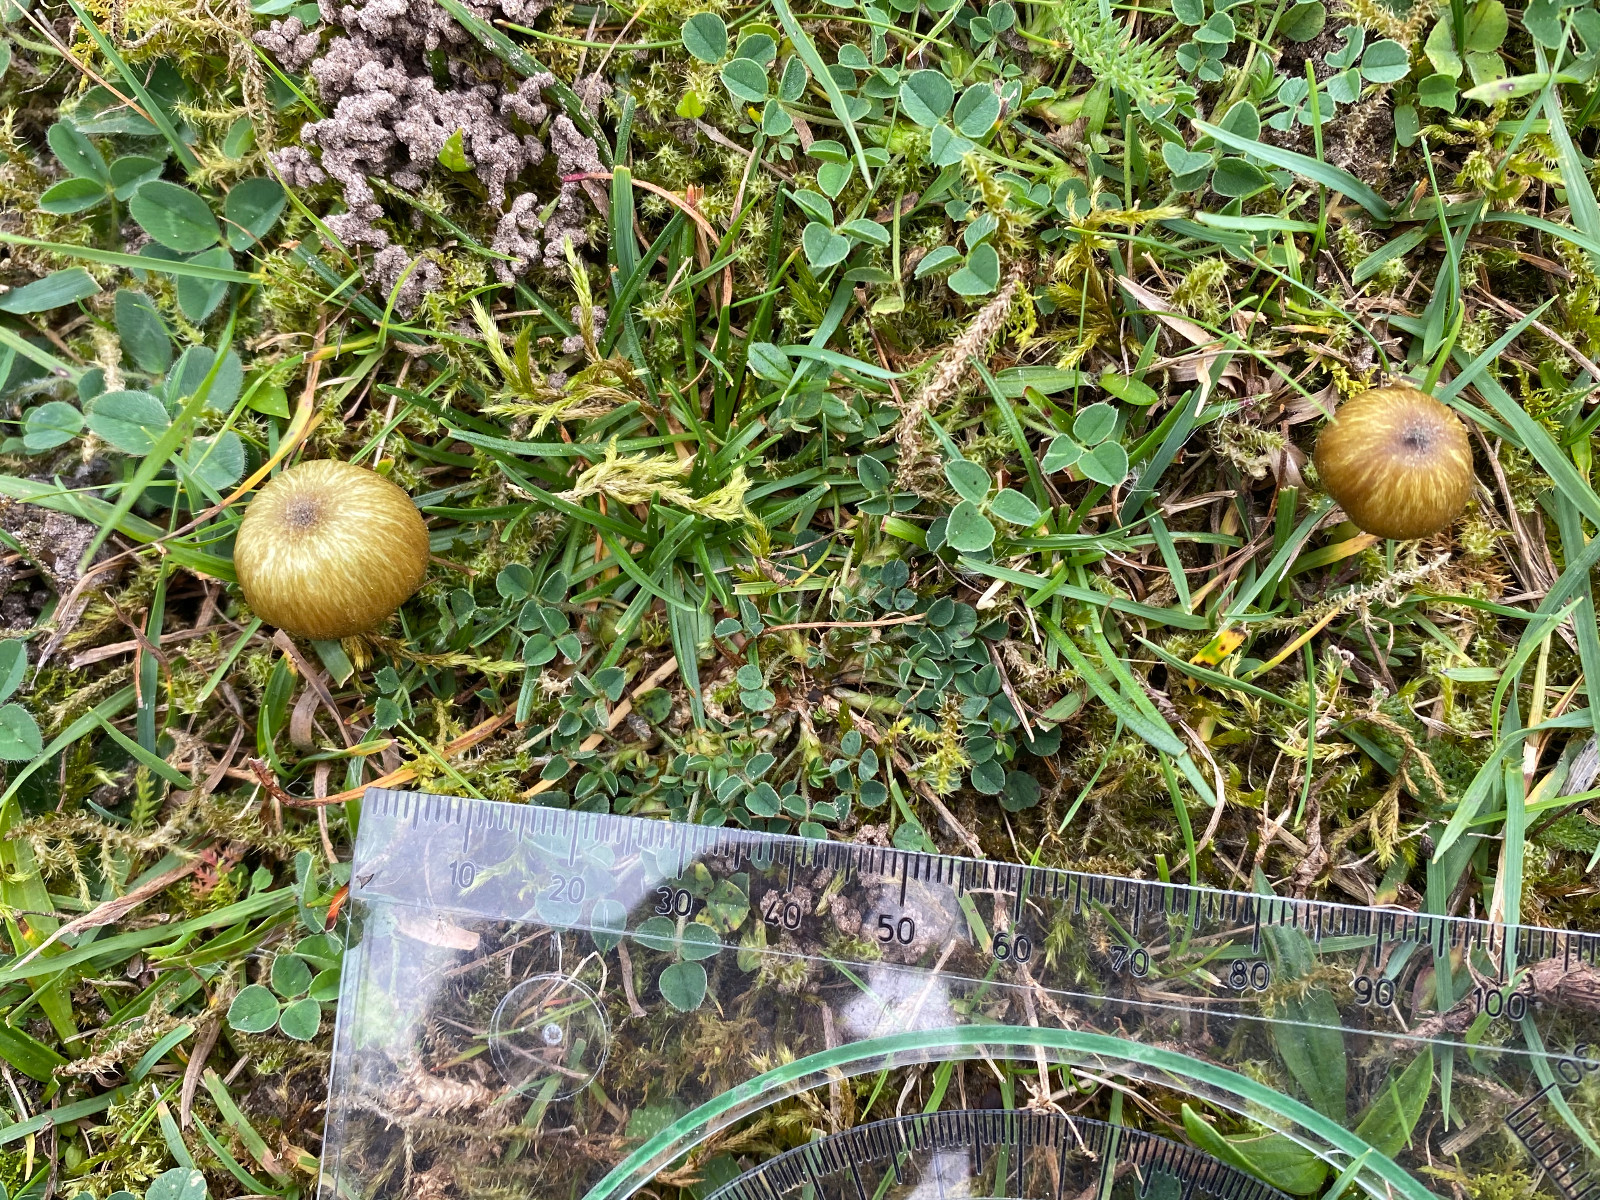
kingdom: Fungi
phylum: Basidiomycota
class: Agaricomycetes
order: Agaricales
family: Entolomataceae
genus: Entoloma
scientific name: Entoloma incanum
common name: grøngul rødblad
